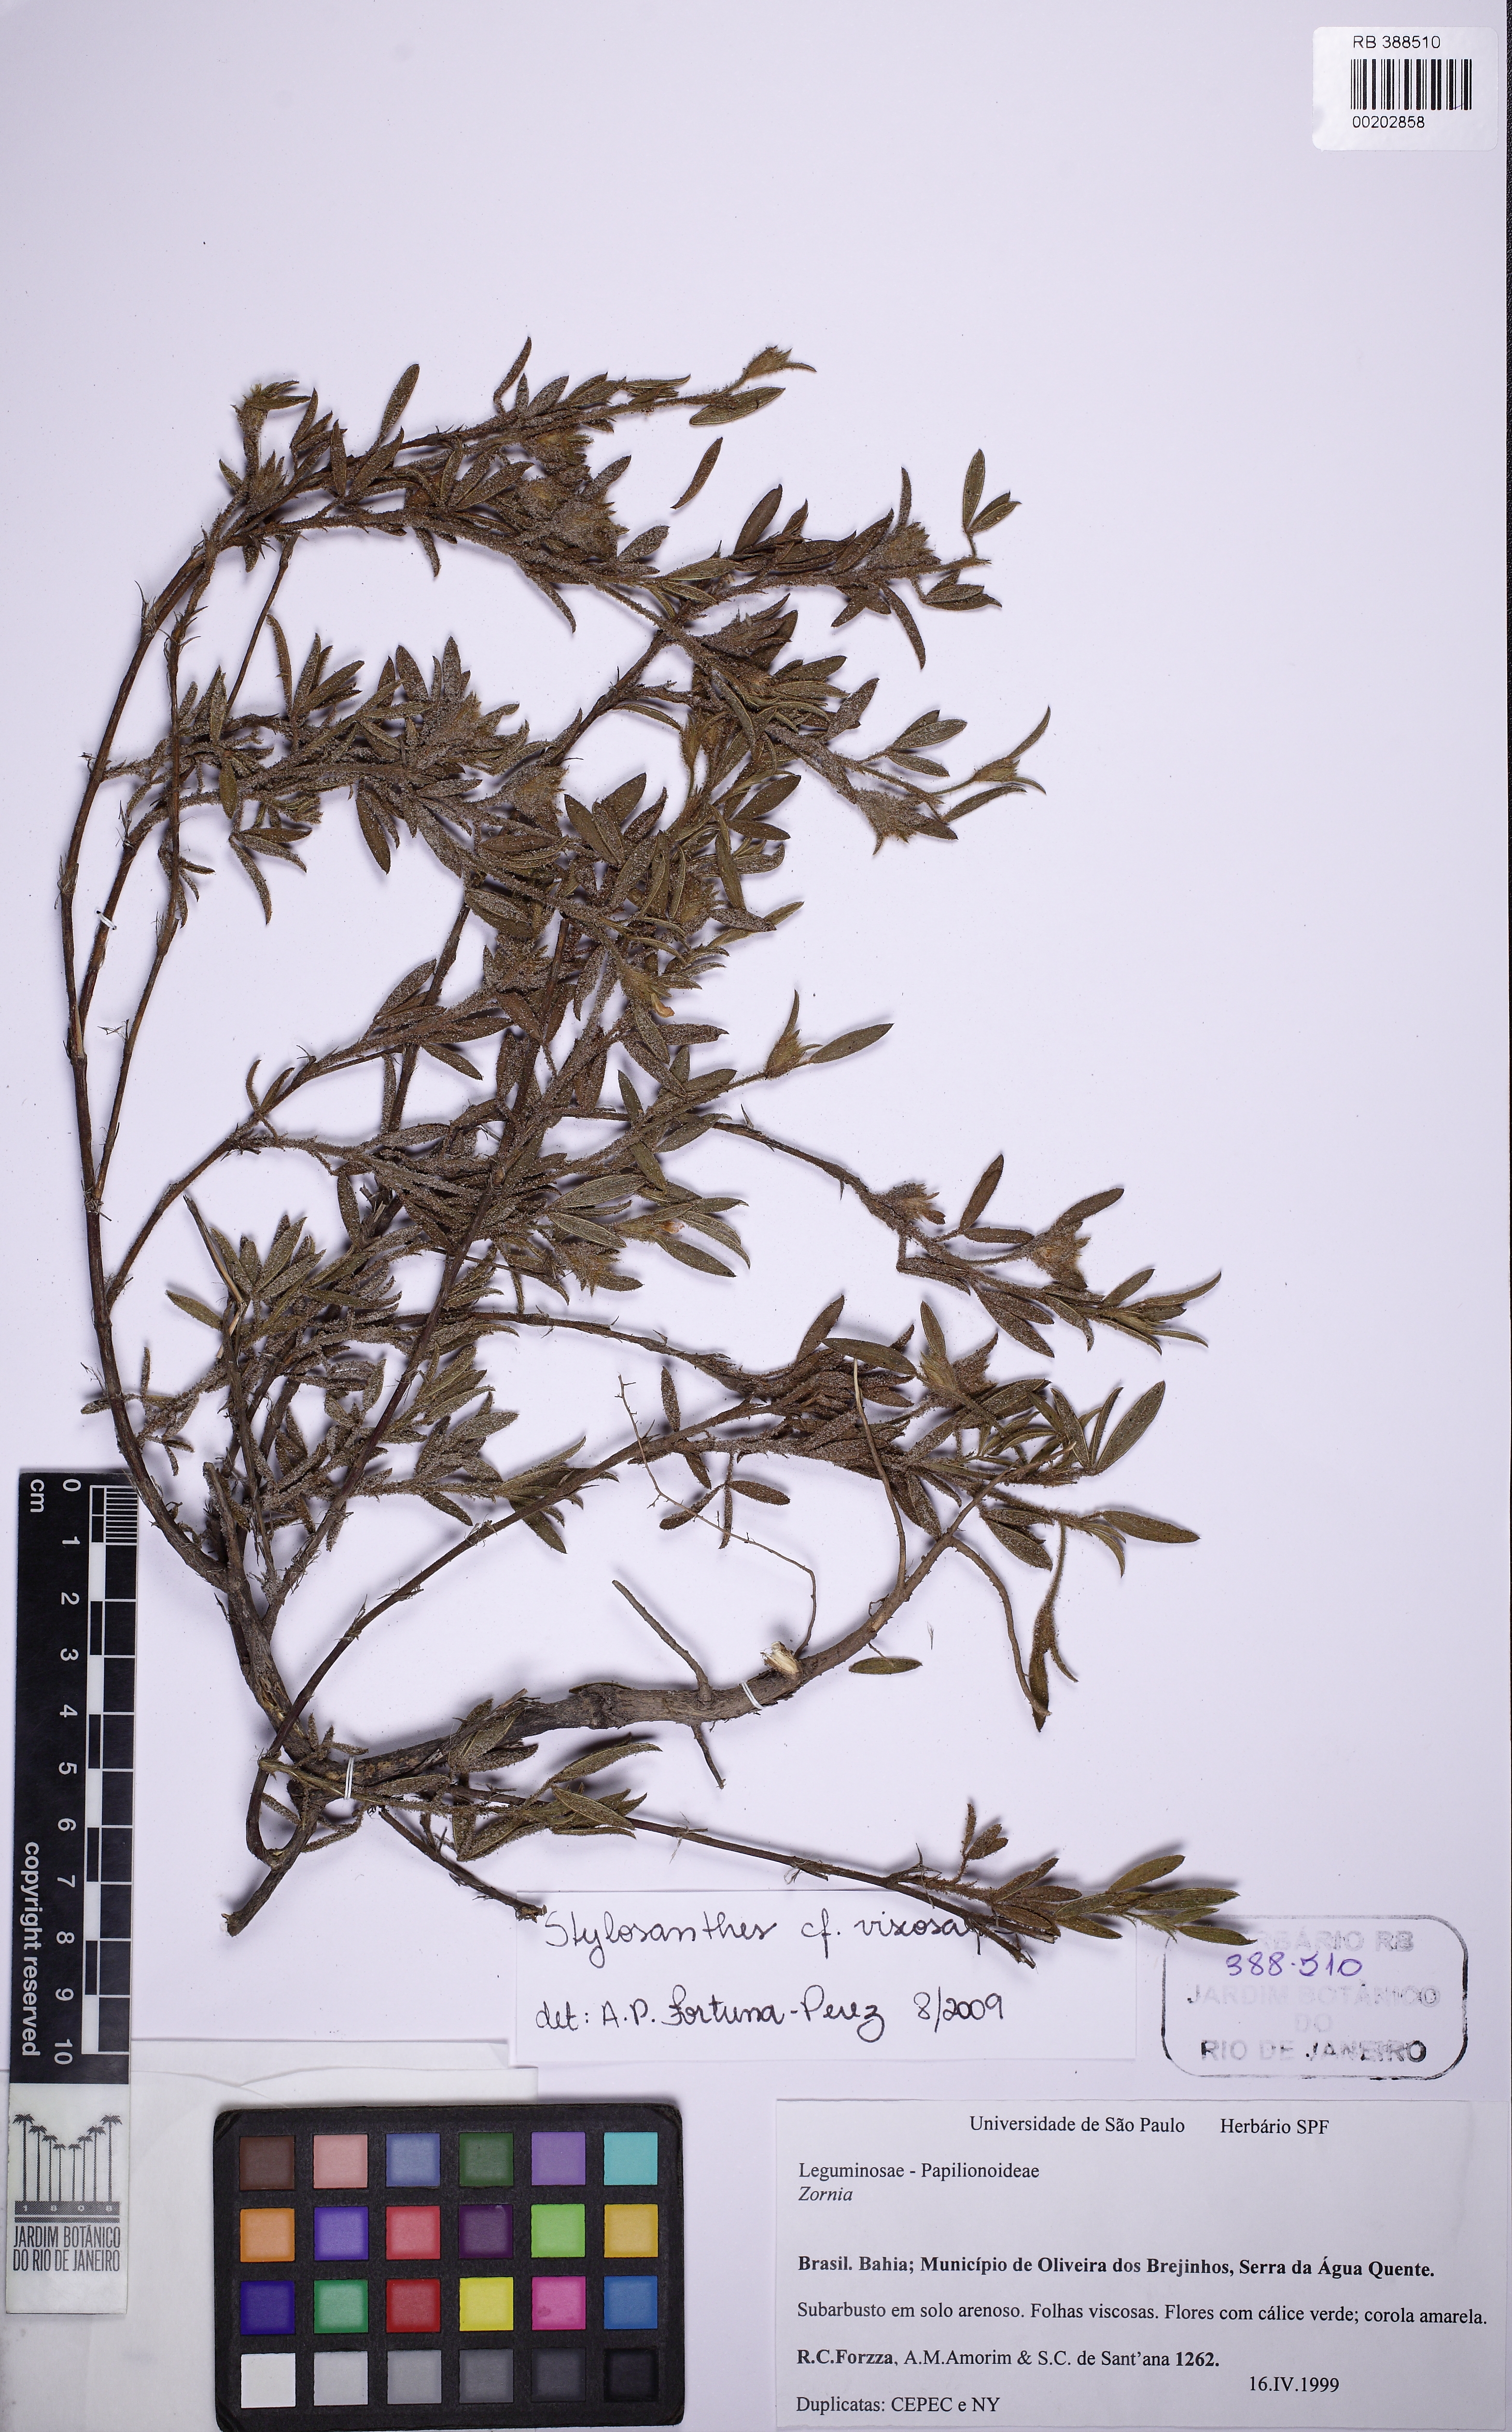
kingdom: Plantae
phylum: Tracheophyta
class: Magnoliopsida
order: Fabales
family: Fabaceae
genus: Stylosanthes
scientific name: Stylosanthes viscosa
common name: Viscid pencil-flower
